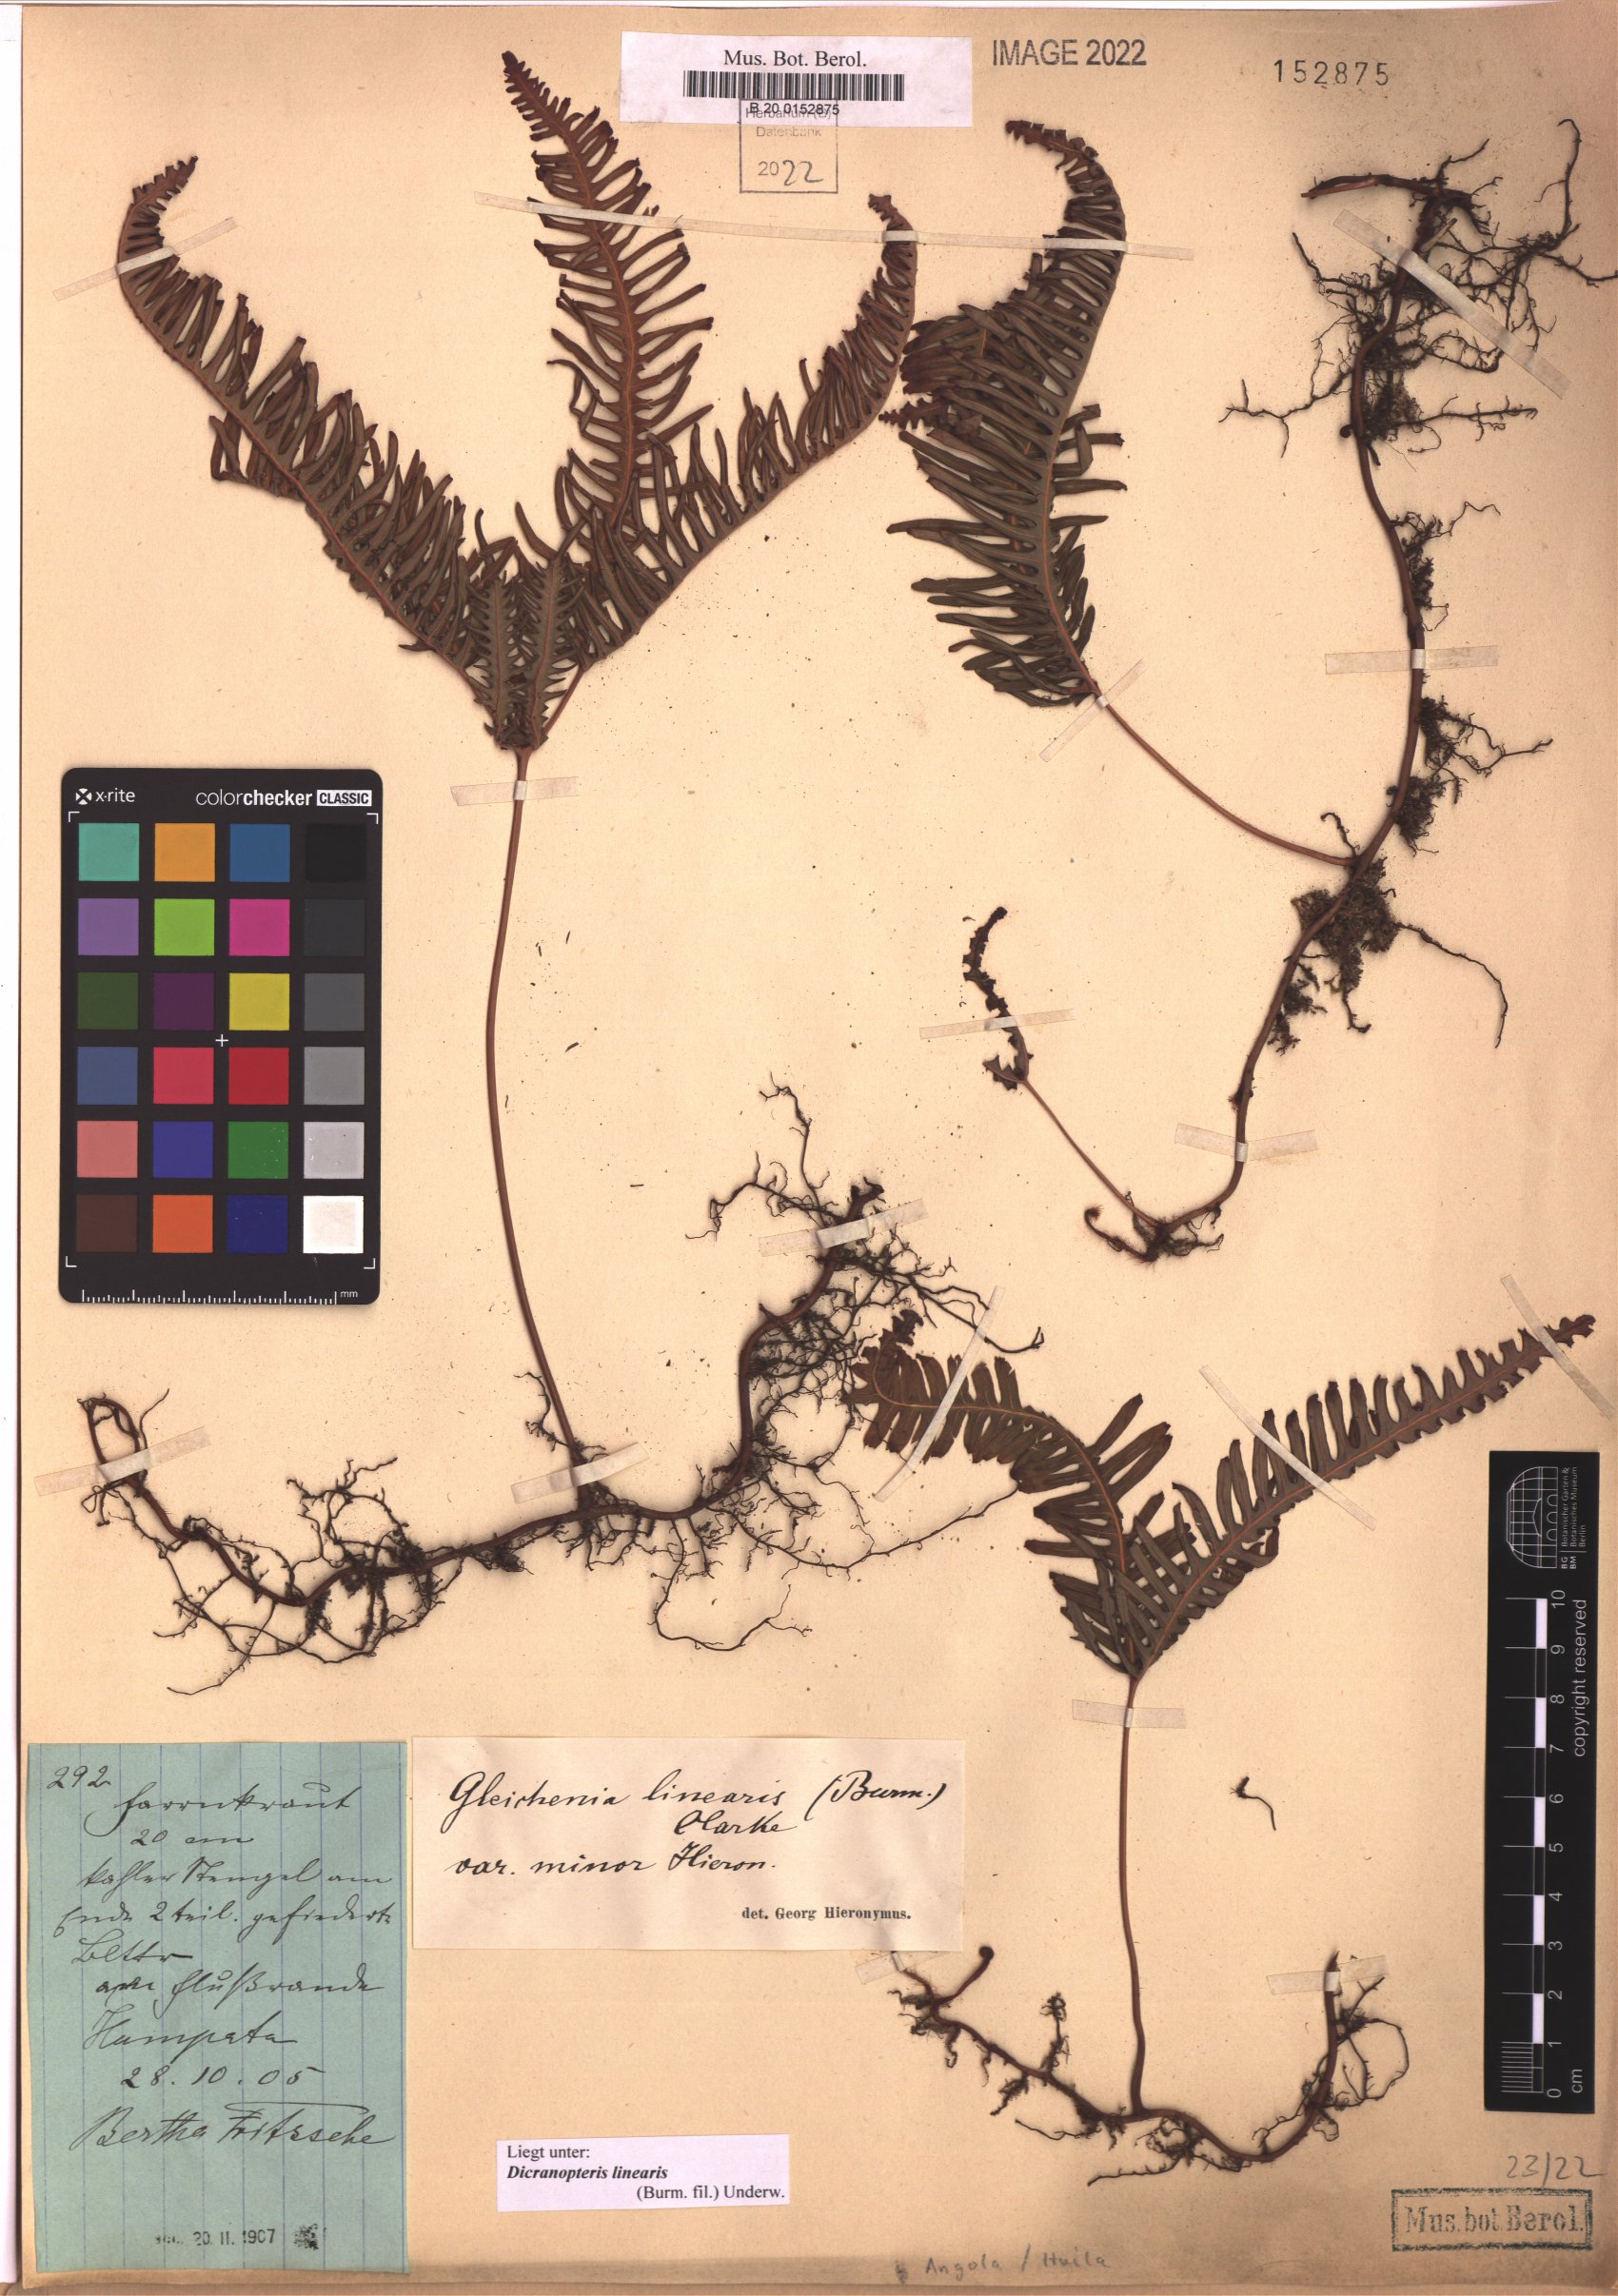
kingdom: Plantae
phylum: Tracheophyta
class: Polypodiopsida
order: Gleicheniales
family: Gleicheniaceae
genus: Dicranopteris
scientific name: Dicranopteris linearis
